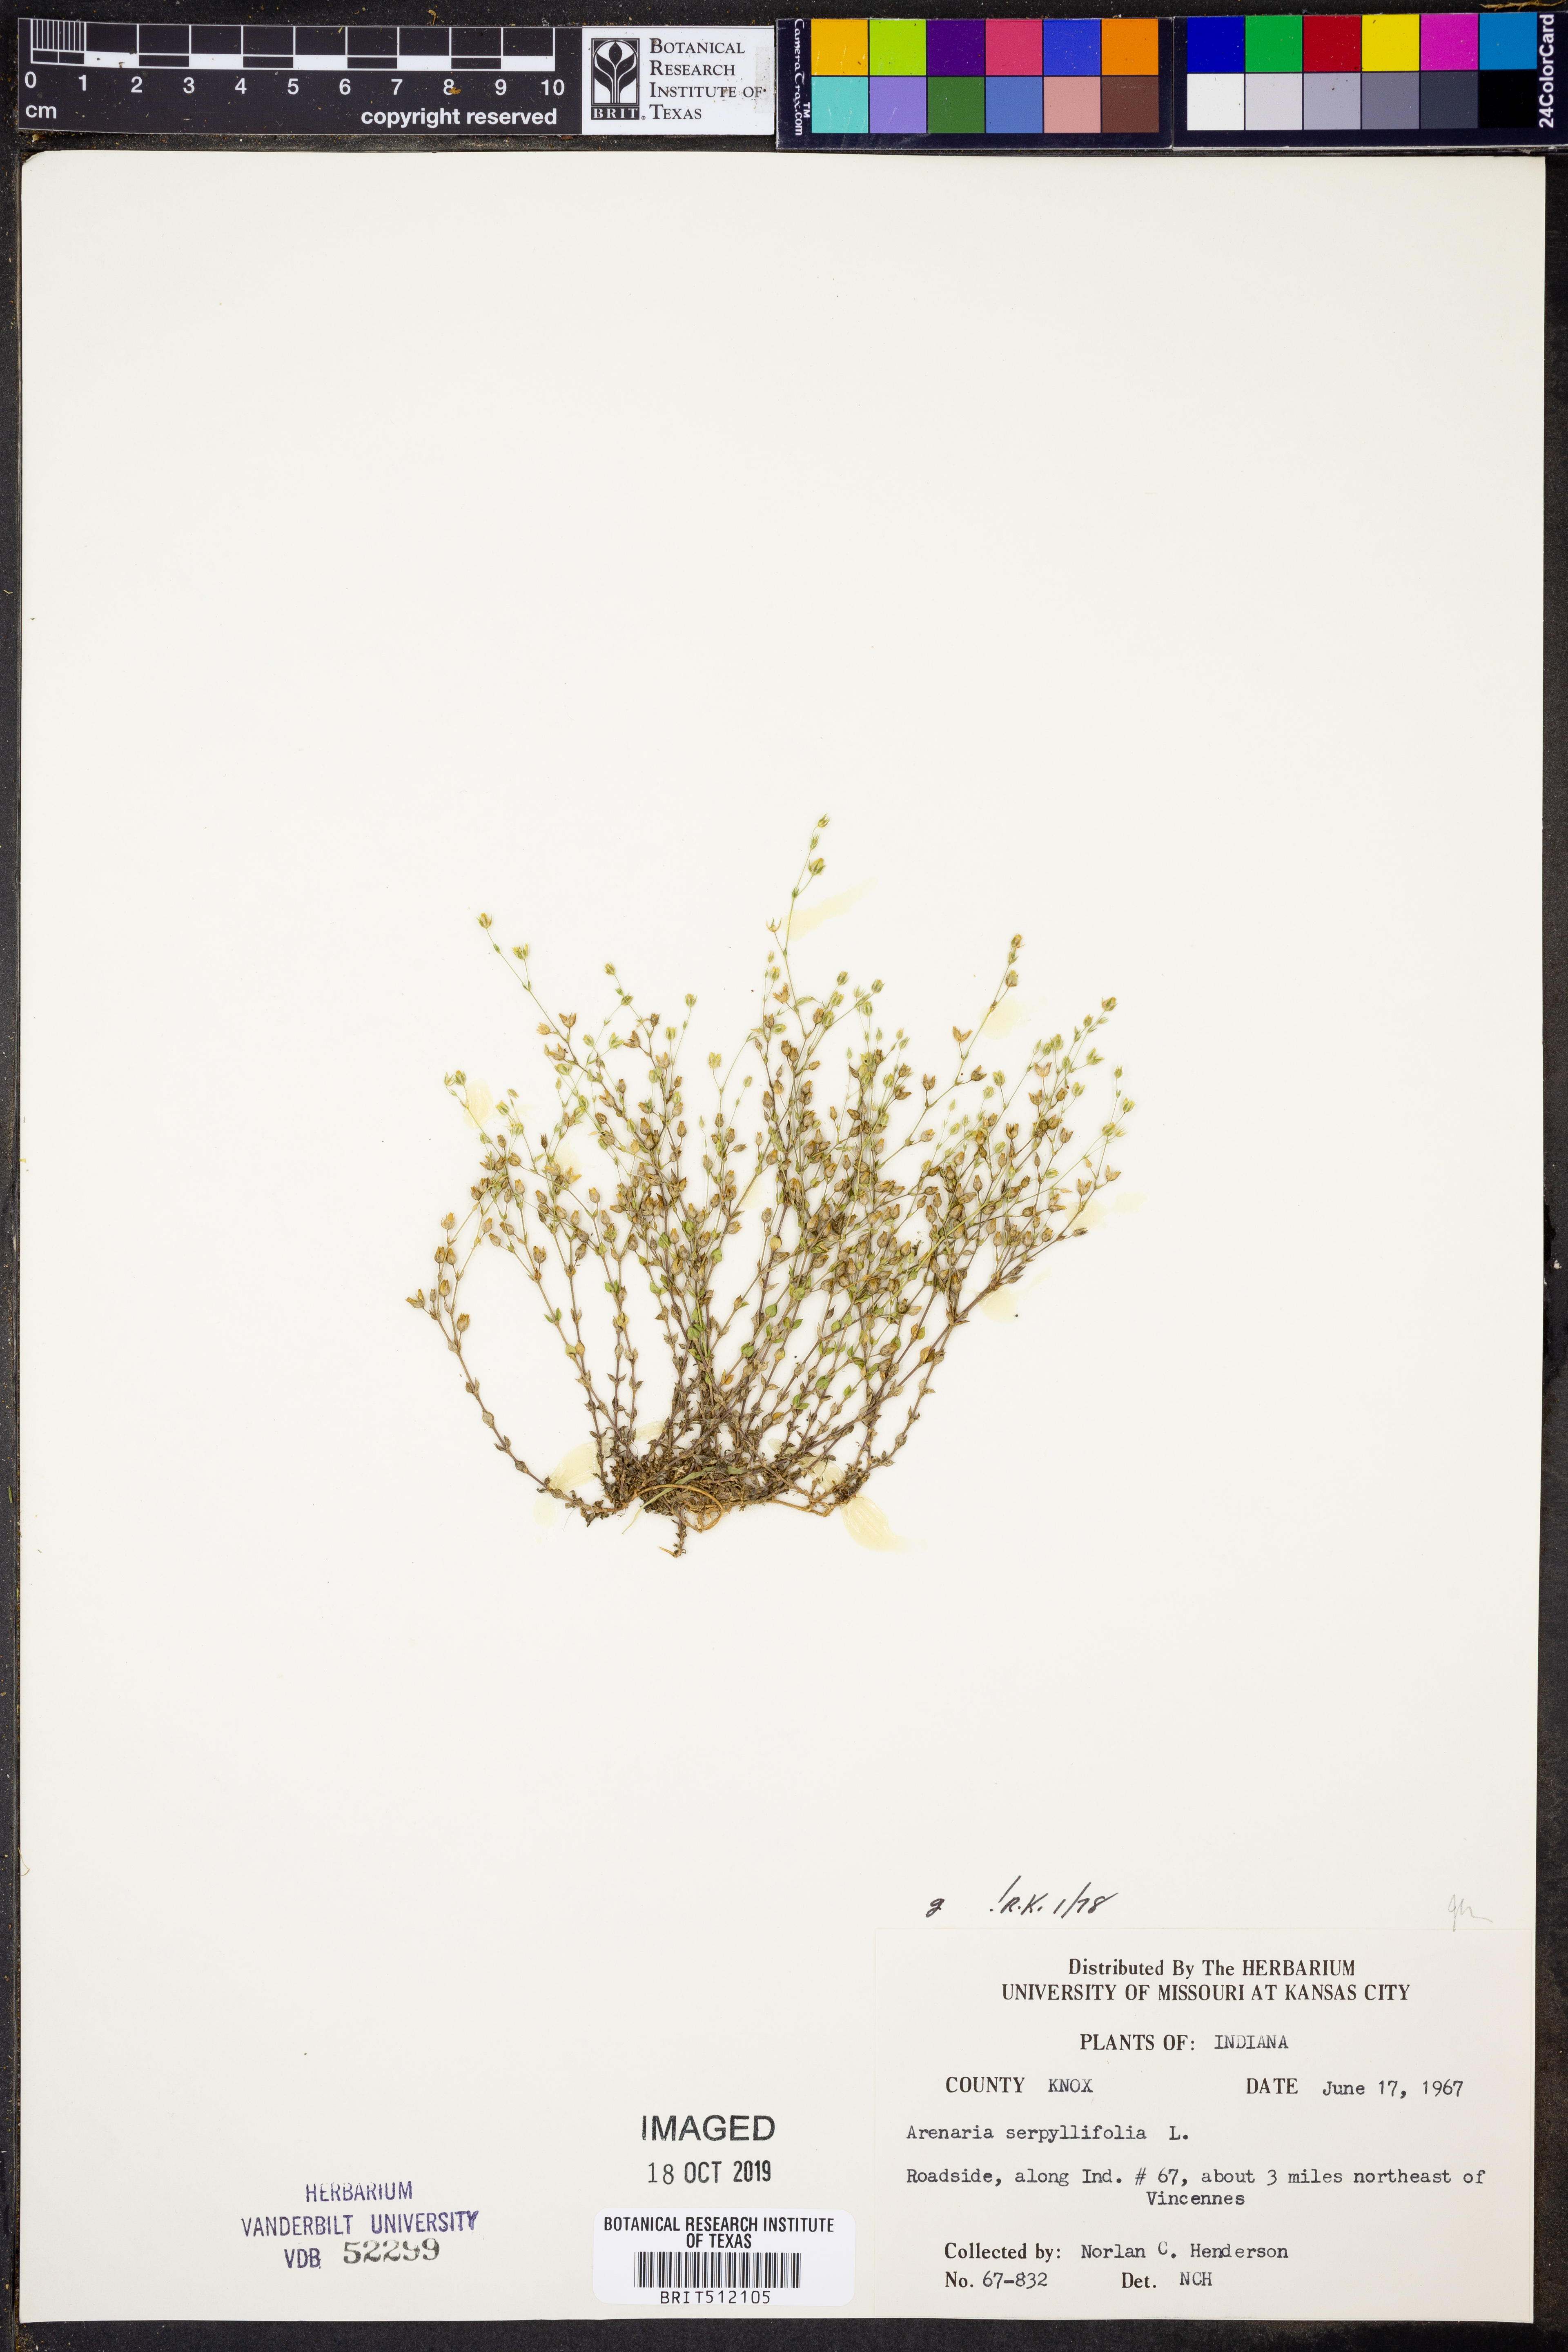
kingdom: Plantae
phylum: Tracheophyta
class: Magnoliopsida
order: Caryophyllales
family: Caryophyllaceae
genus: Arenaria
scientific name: Arenaria serpyllifolia
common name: Thyme-leaved sandwort
